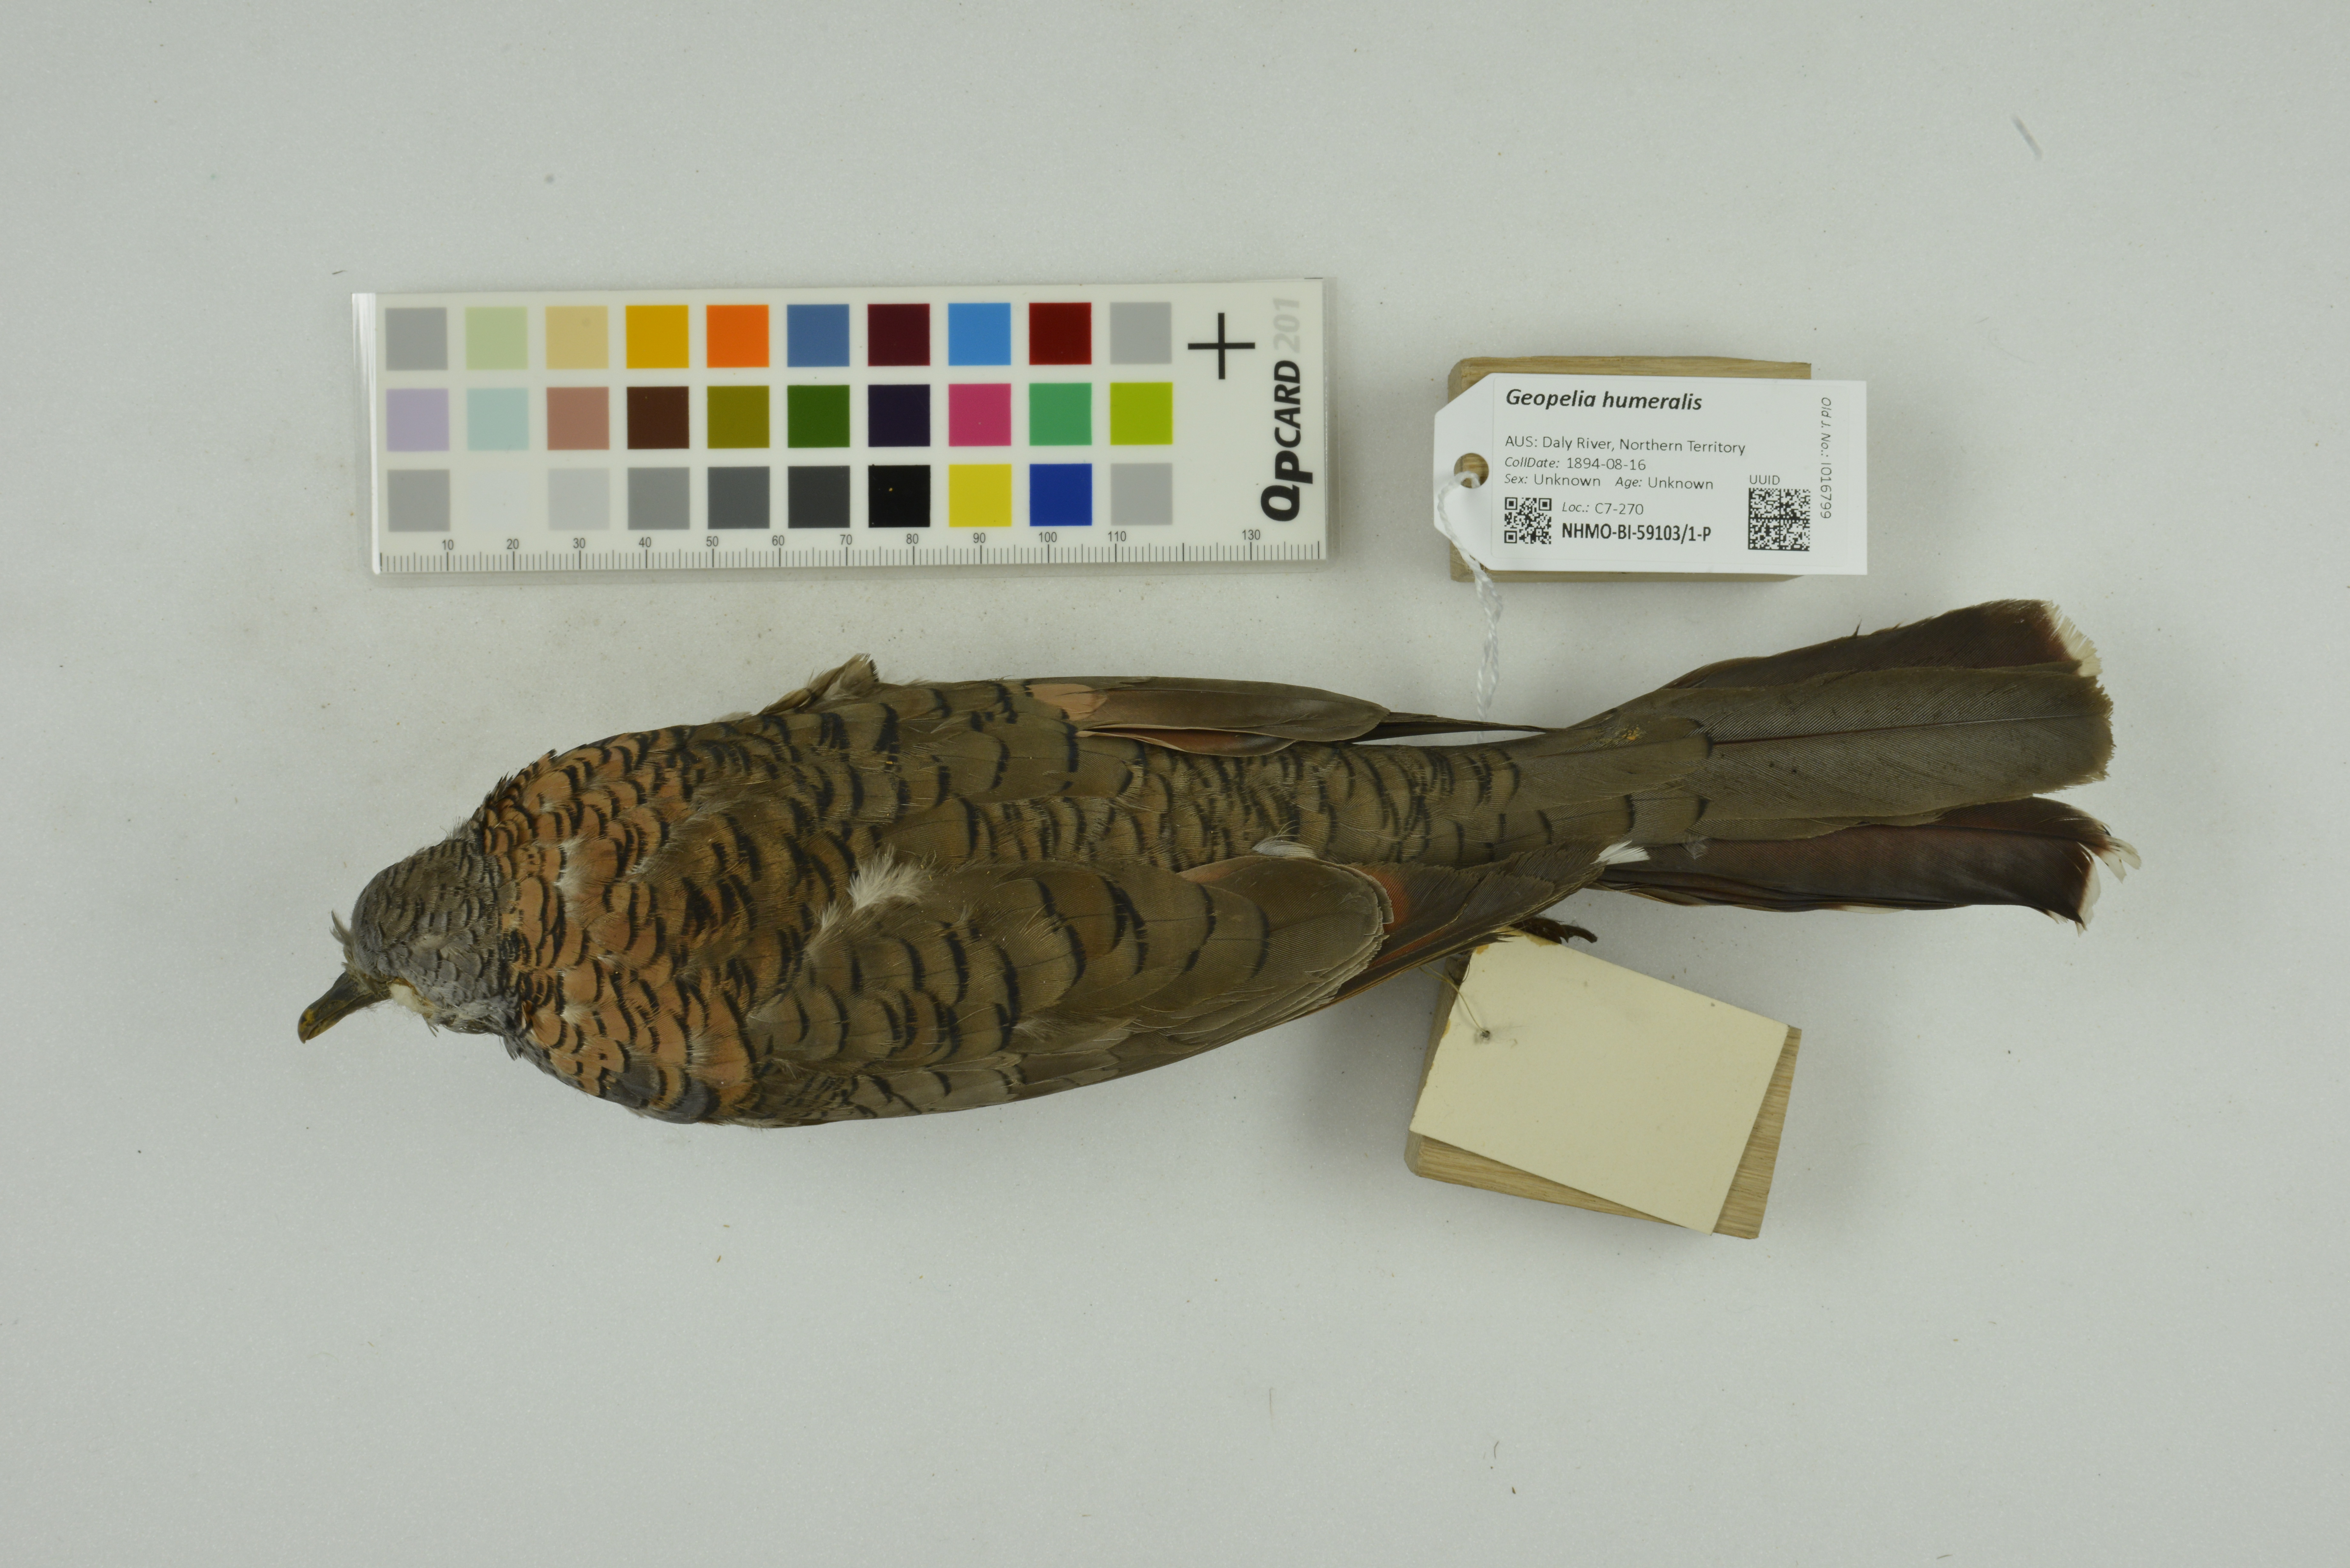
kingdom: Animalia
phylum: Chordata
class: Aves
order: Columbiformes
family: Columbidae
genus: Geopelia
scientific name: Geopelia humeralis
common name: Bar-shouldered dove
